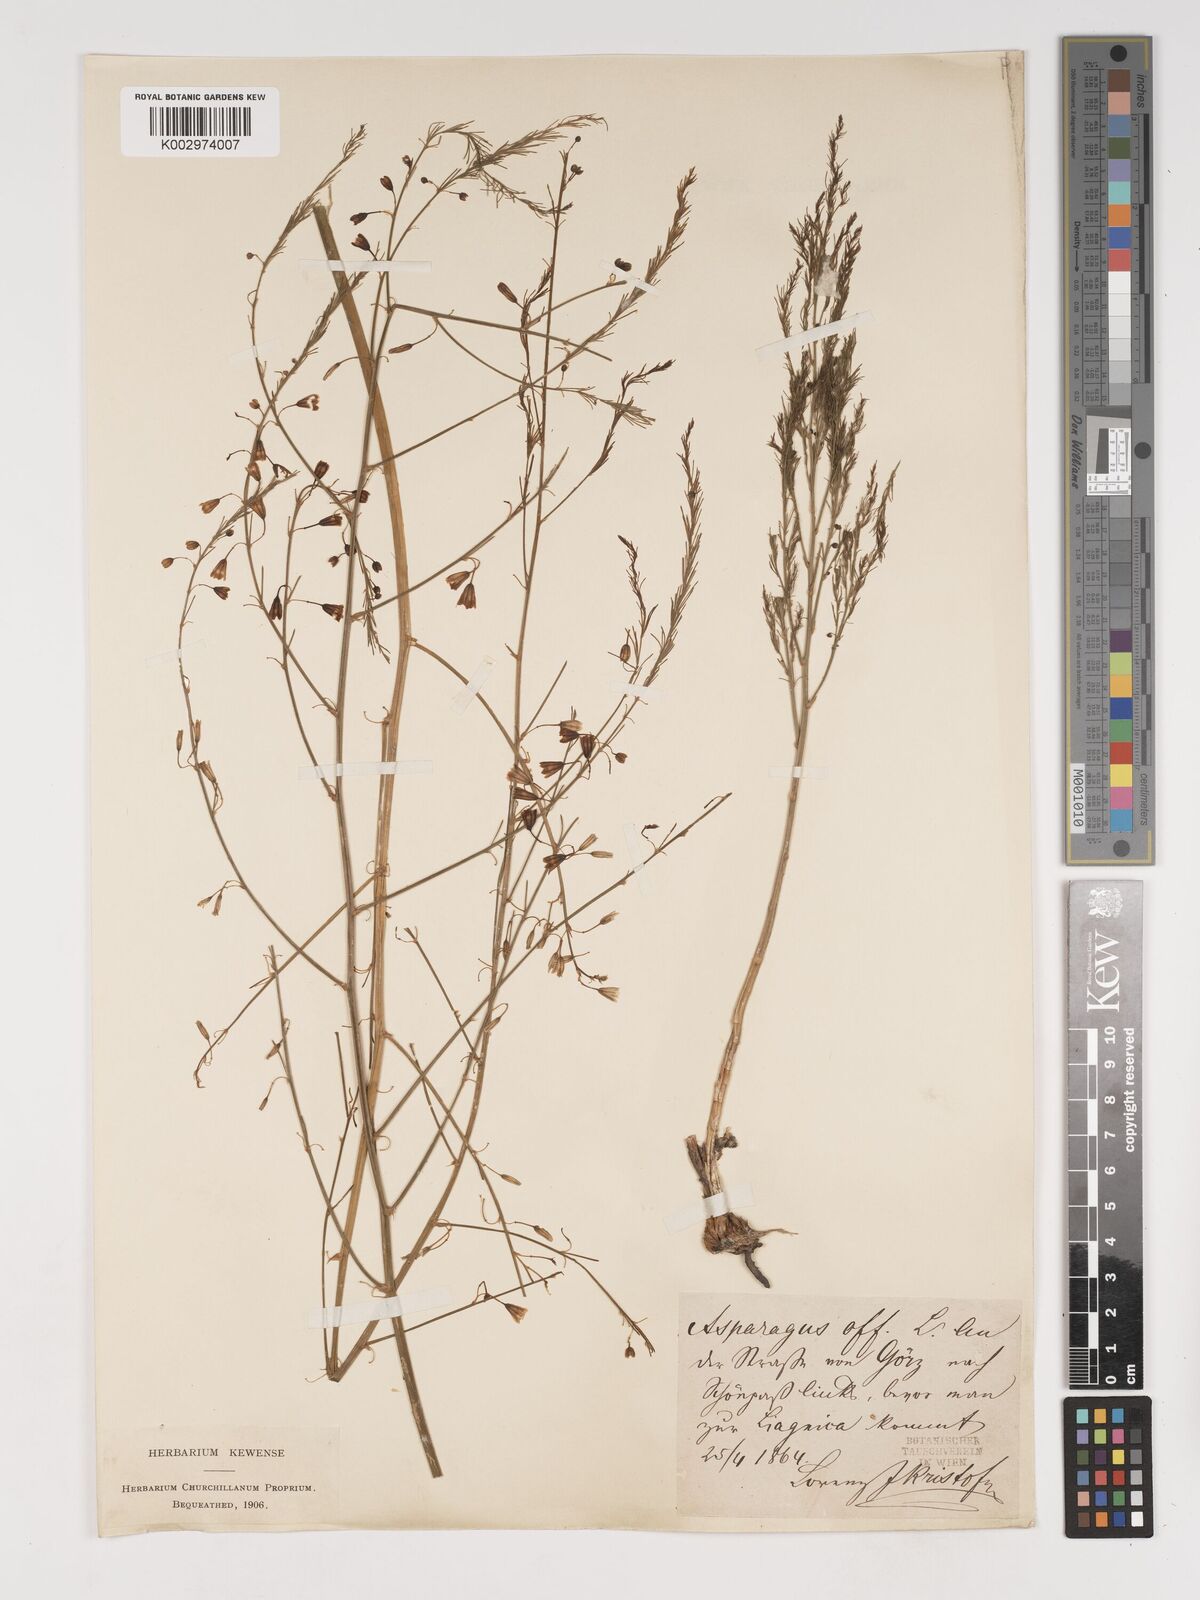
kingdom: Plantae
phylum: Tracheophyta
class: Liliopsida
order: Asparagales
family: Asparagaceae
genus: Asparagus
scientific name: Asparagus officinalis
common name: Garden asparagus
